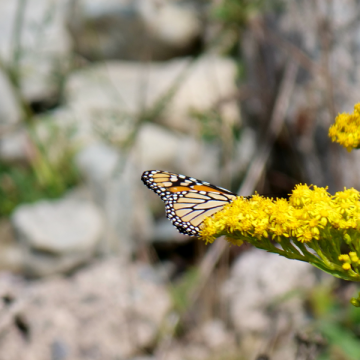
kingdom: Animalia
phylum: Arthropoda
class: Insecta
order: Lepidoptera
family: Nymphalidae
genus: Danaus
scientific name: Danaus plexippus
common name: Monarch
